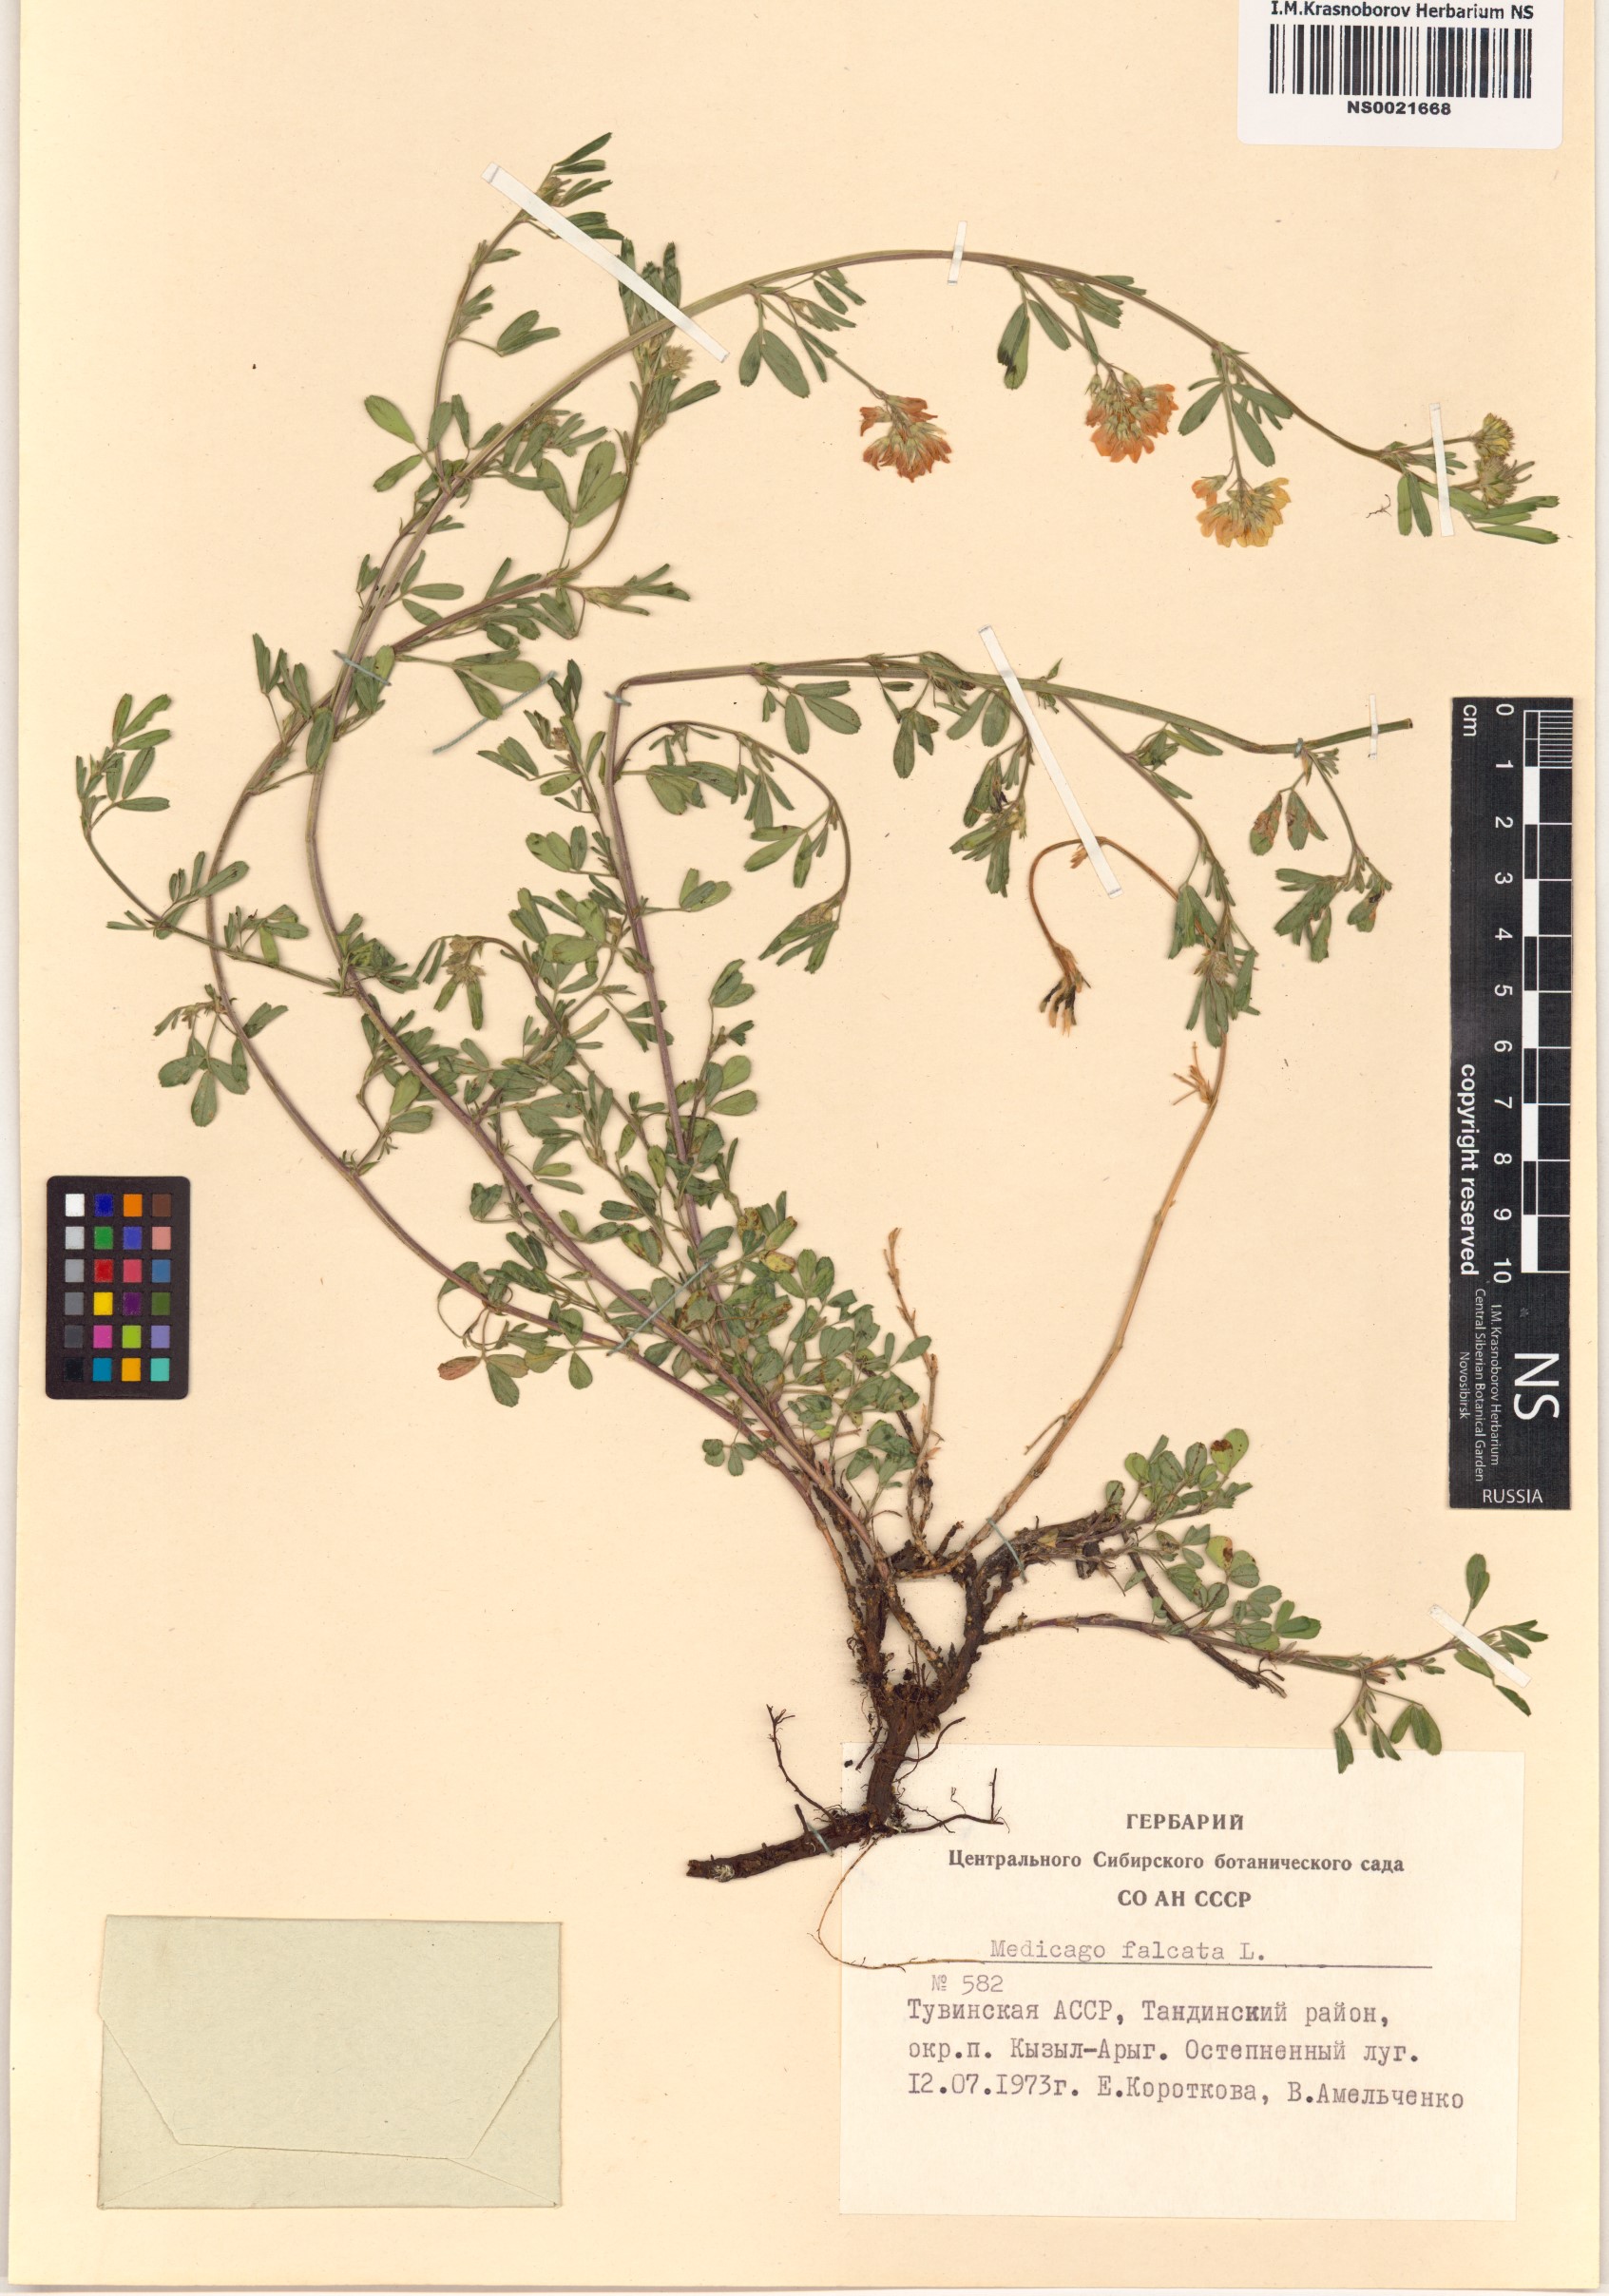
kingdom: Plantae
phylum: Tracheophyta
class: Magnoliopsida
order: Fabales
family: Fabaceae
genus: Medicago
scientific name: Medicago falcata
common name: Sickle medick
